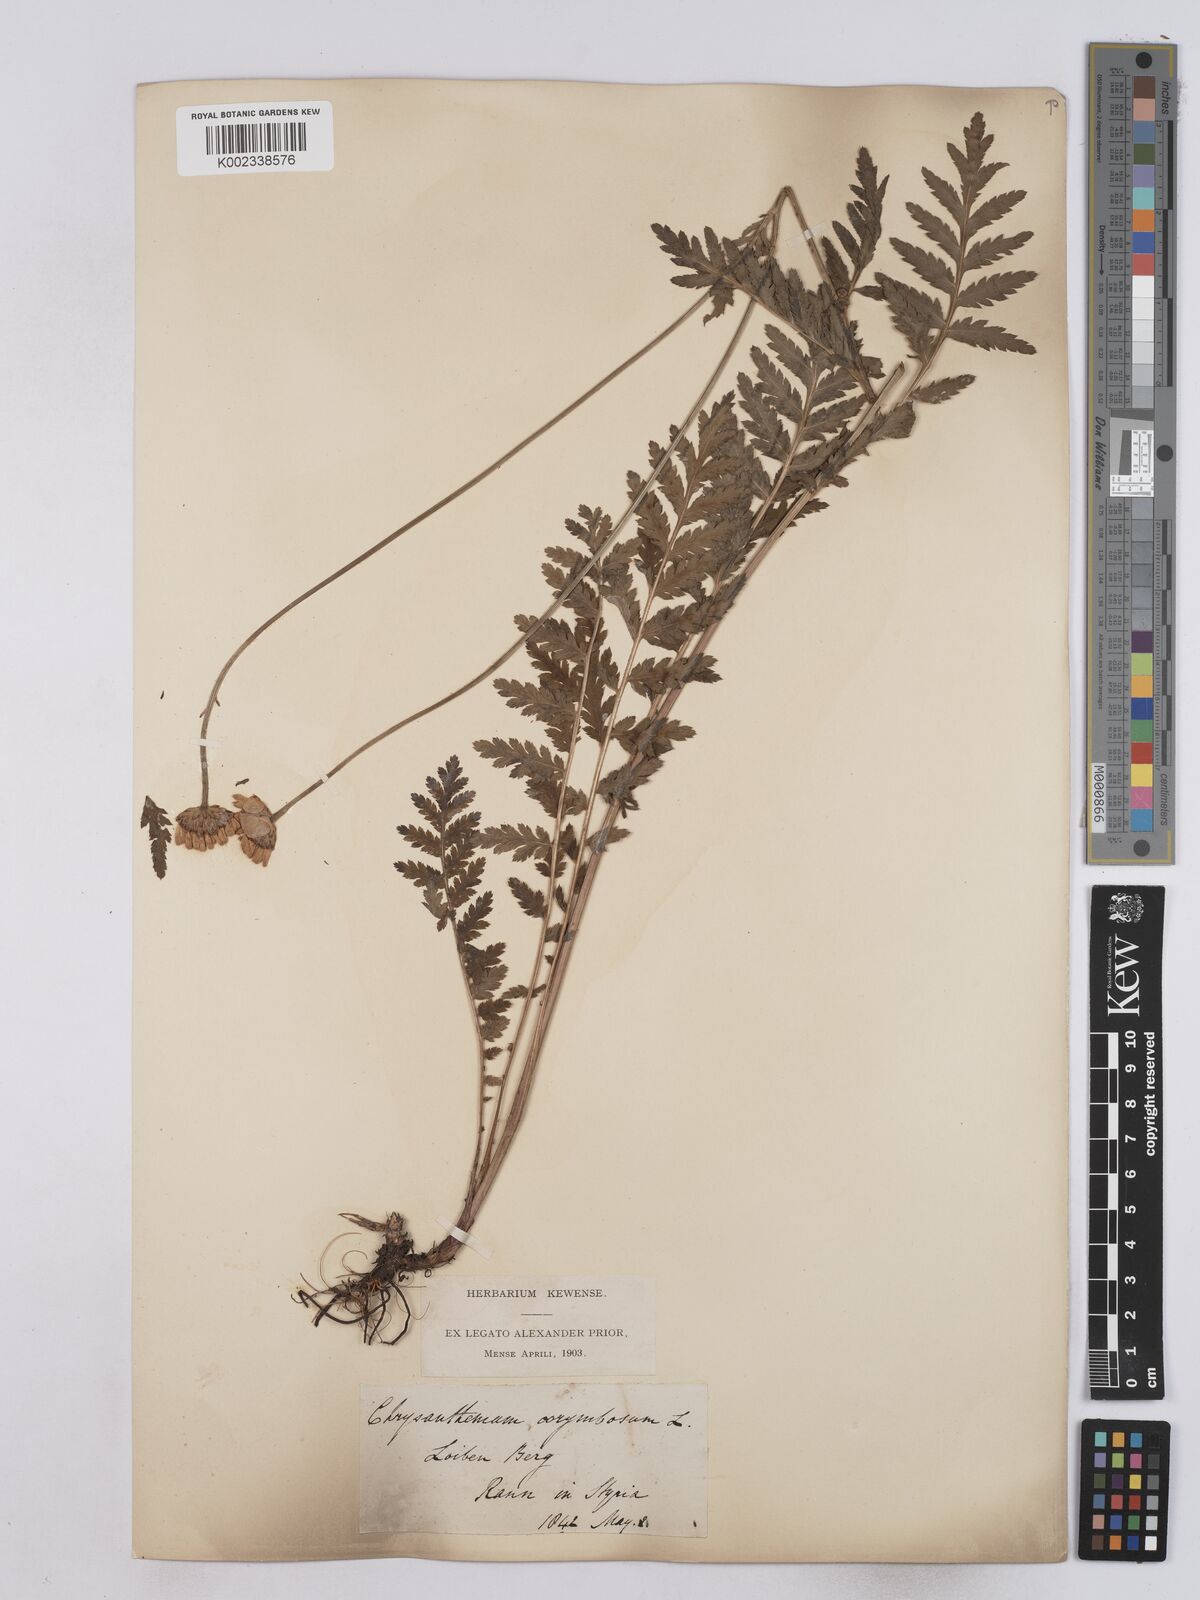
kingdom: Plantae
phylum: Tracheophyta
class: Magnoliopsida
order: Asterales
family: Asteraceae
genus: Tanacetum
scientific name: Tanacetum corymbosum
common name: Scentless feverfew
